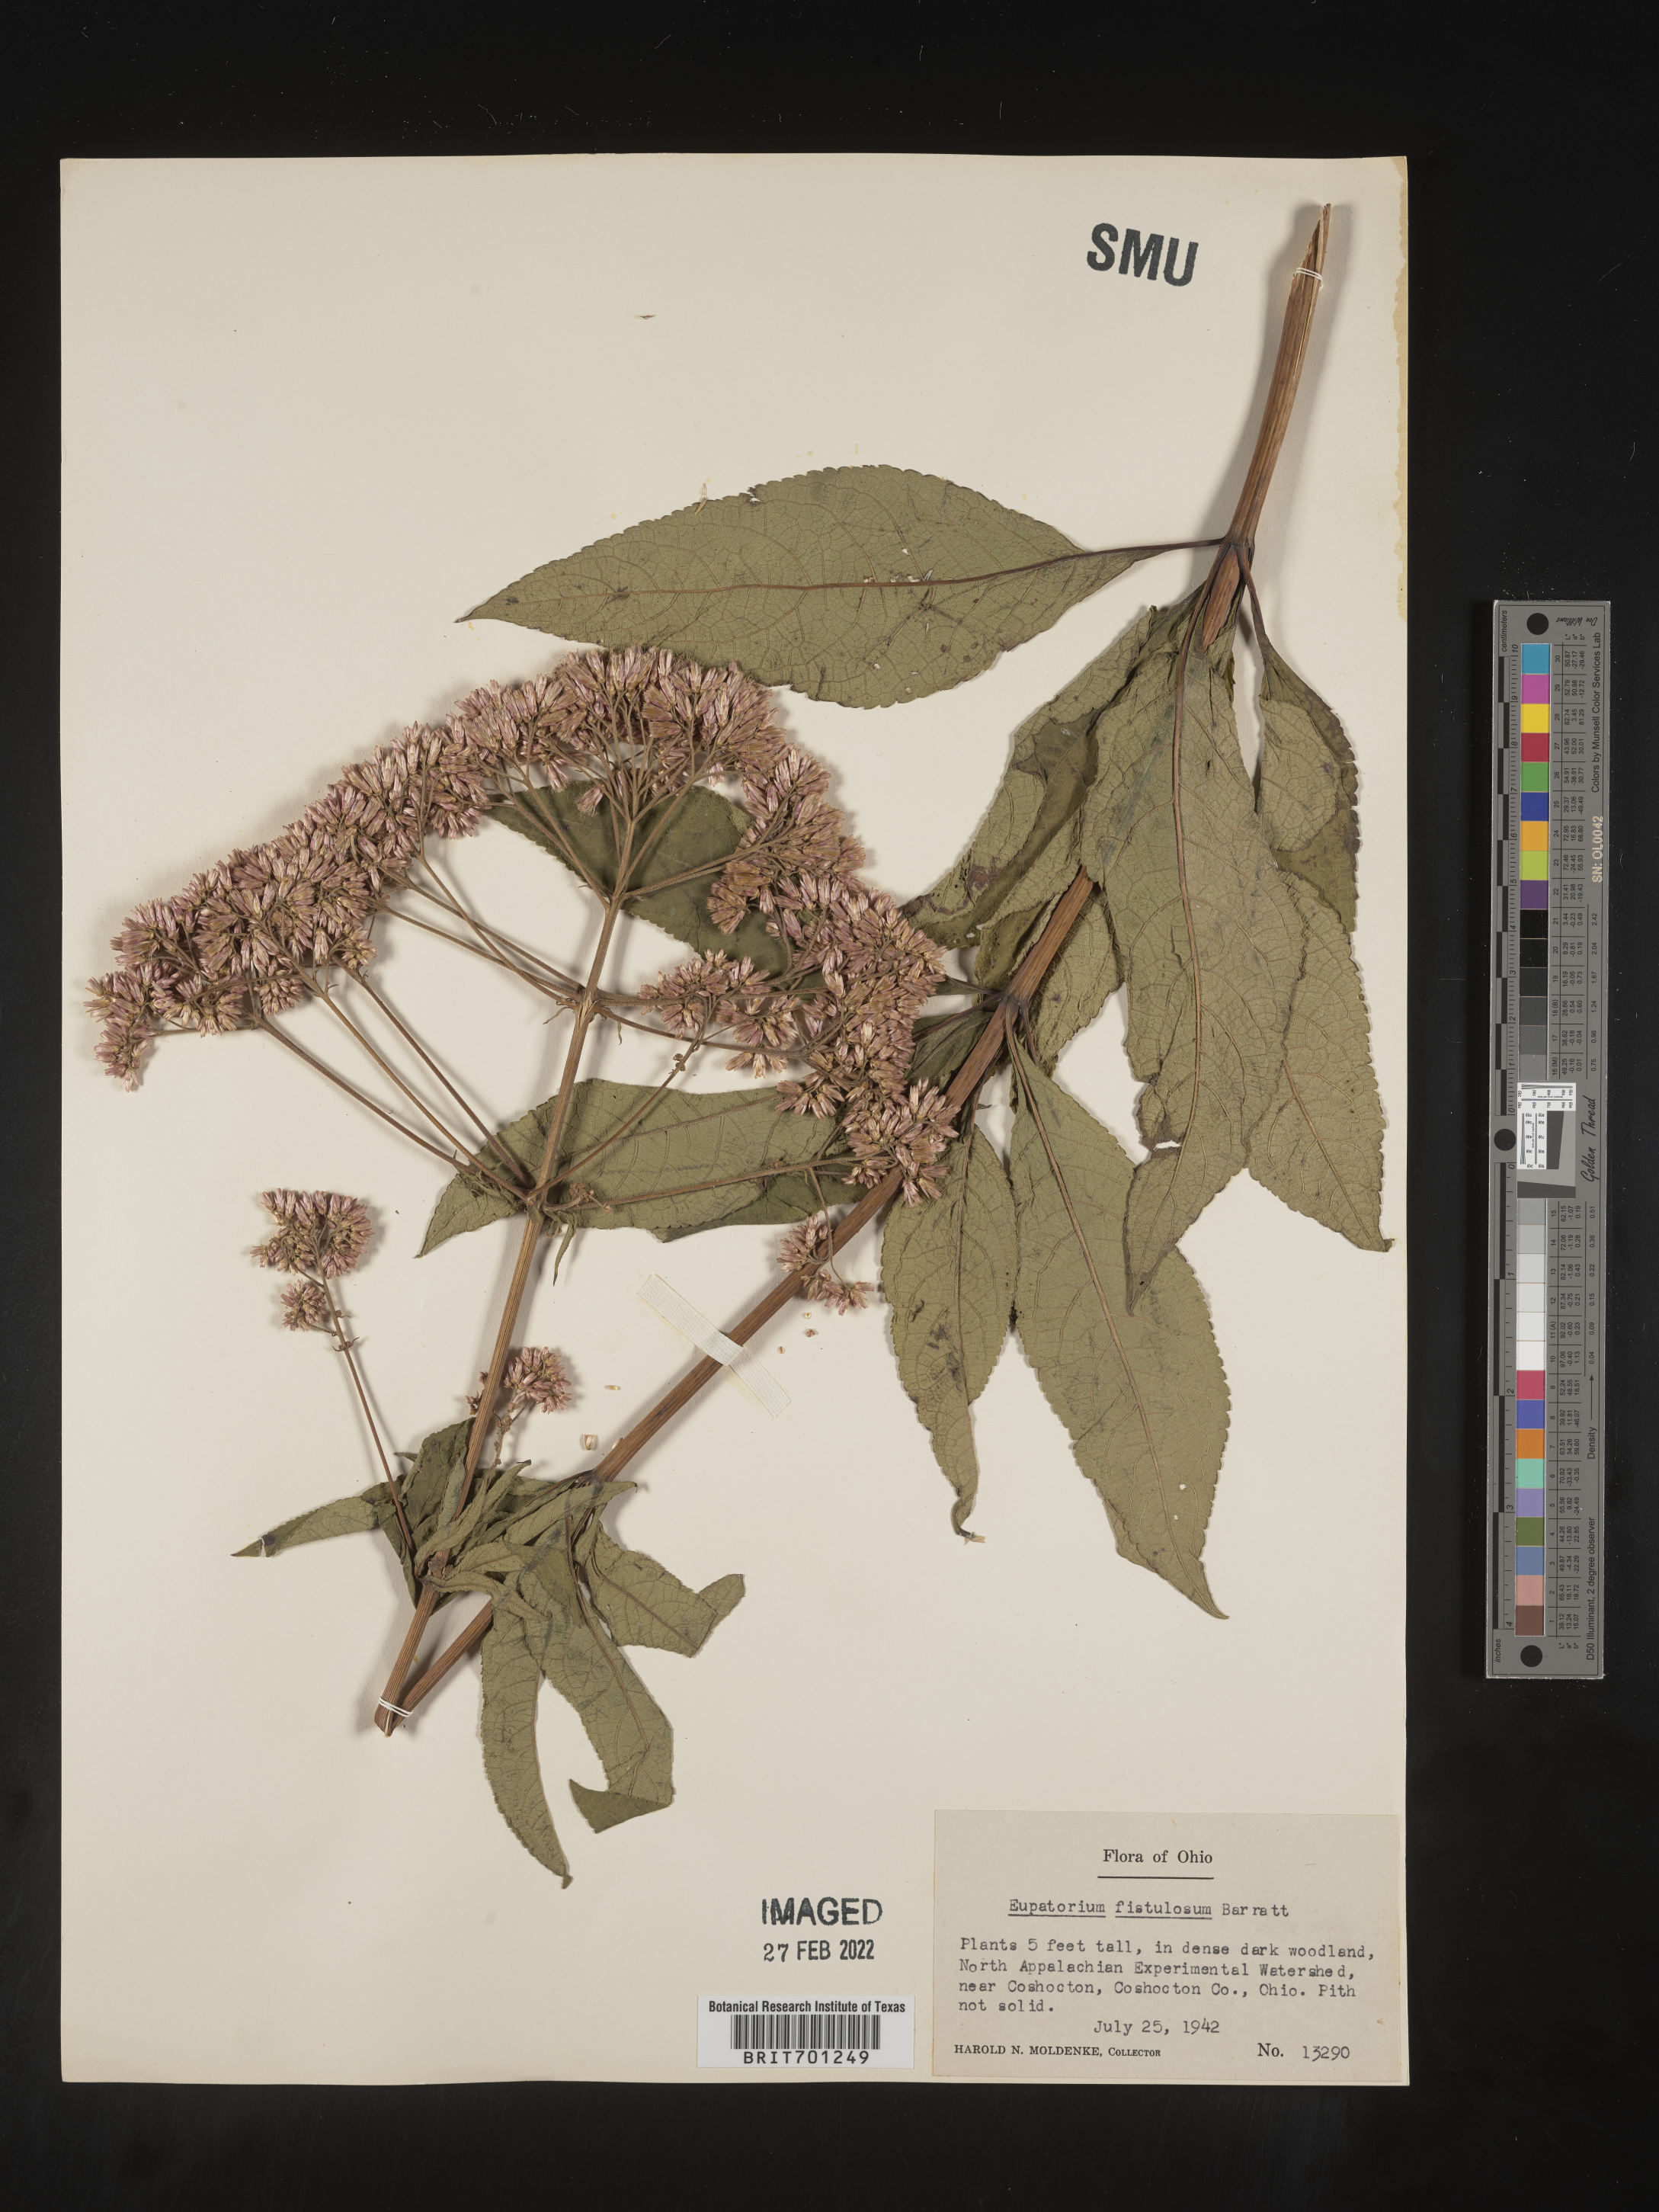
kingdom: Plantae
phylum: Tracheophyta
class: Magnoliopsida
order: Asterales
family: Asteraceae
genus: Eutrochium
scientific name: Eutrochium fistulosum
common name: Trumpetweed
